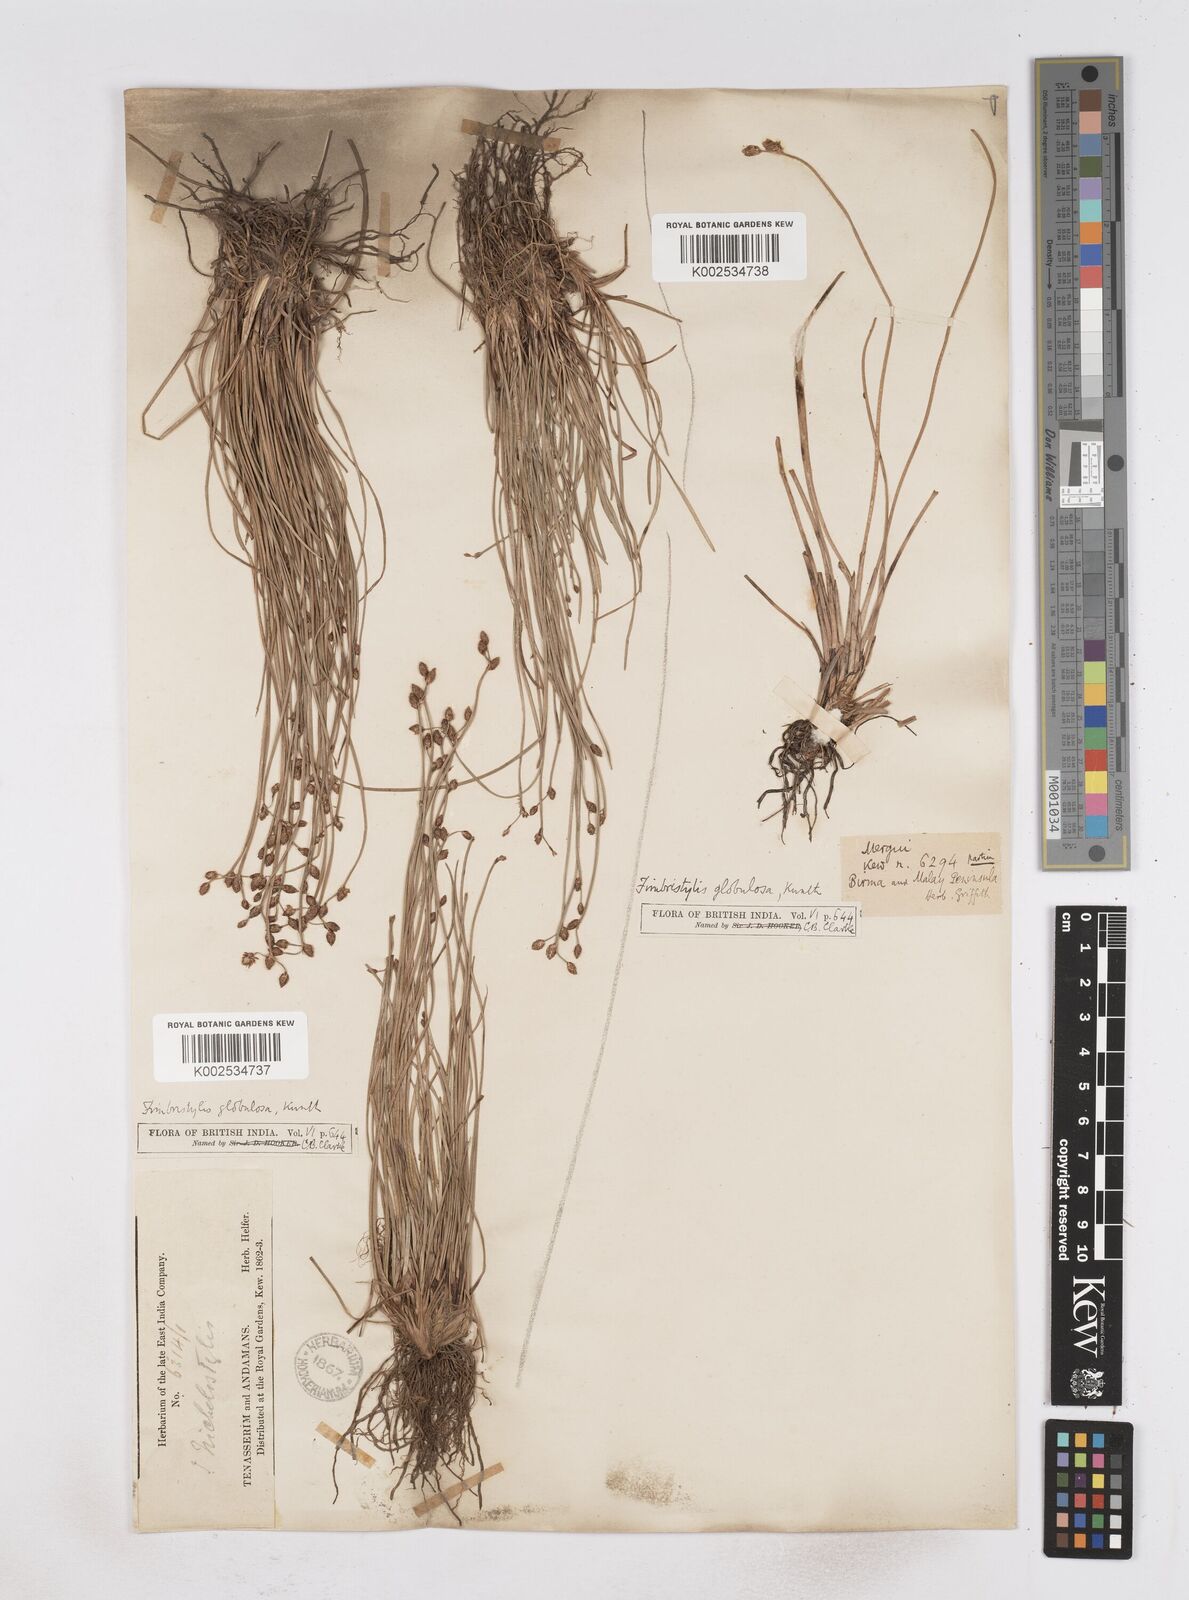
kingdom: Plantae
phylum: Tracheophyta
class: Liliopsida
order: Poales
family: Cyperaceae
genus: Fimbristylis
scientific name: Fimbristylis umbellaris
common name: Globular fimbristylis
